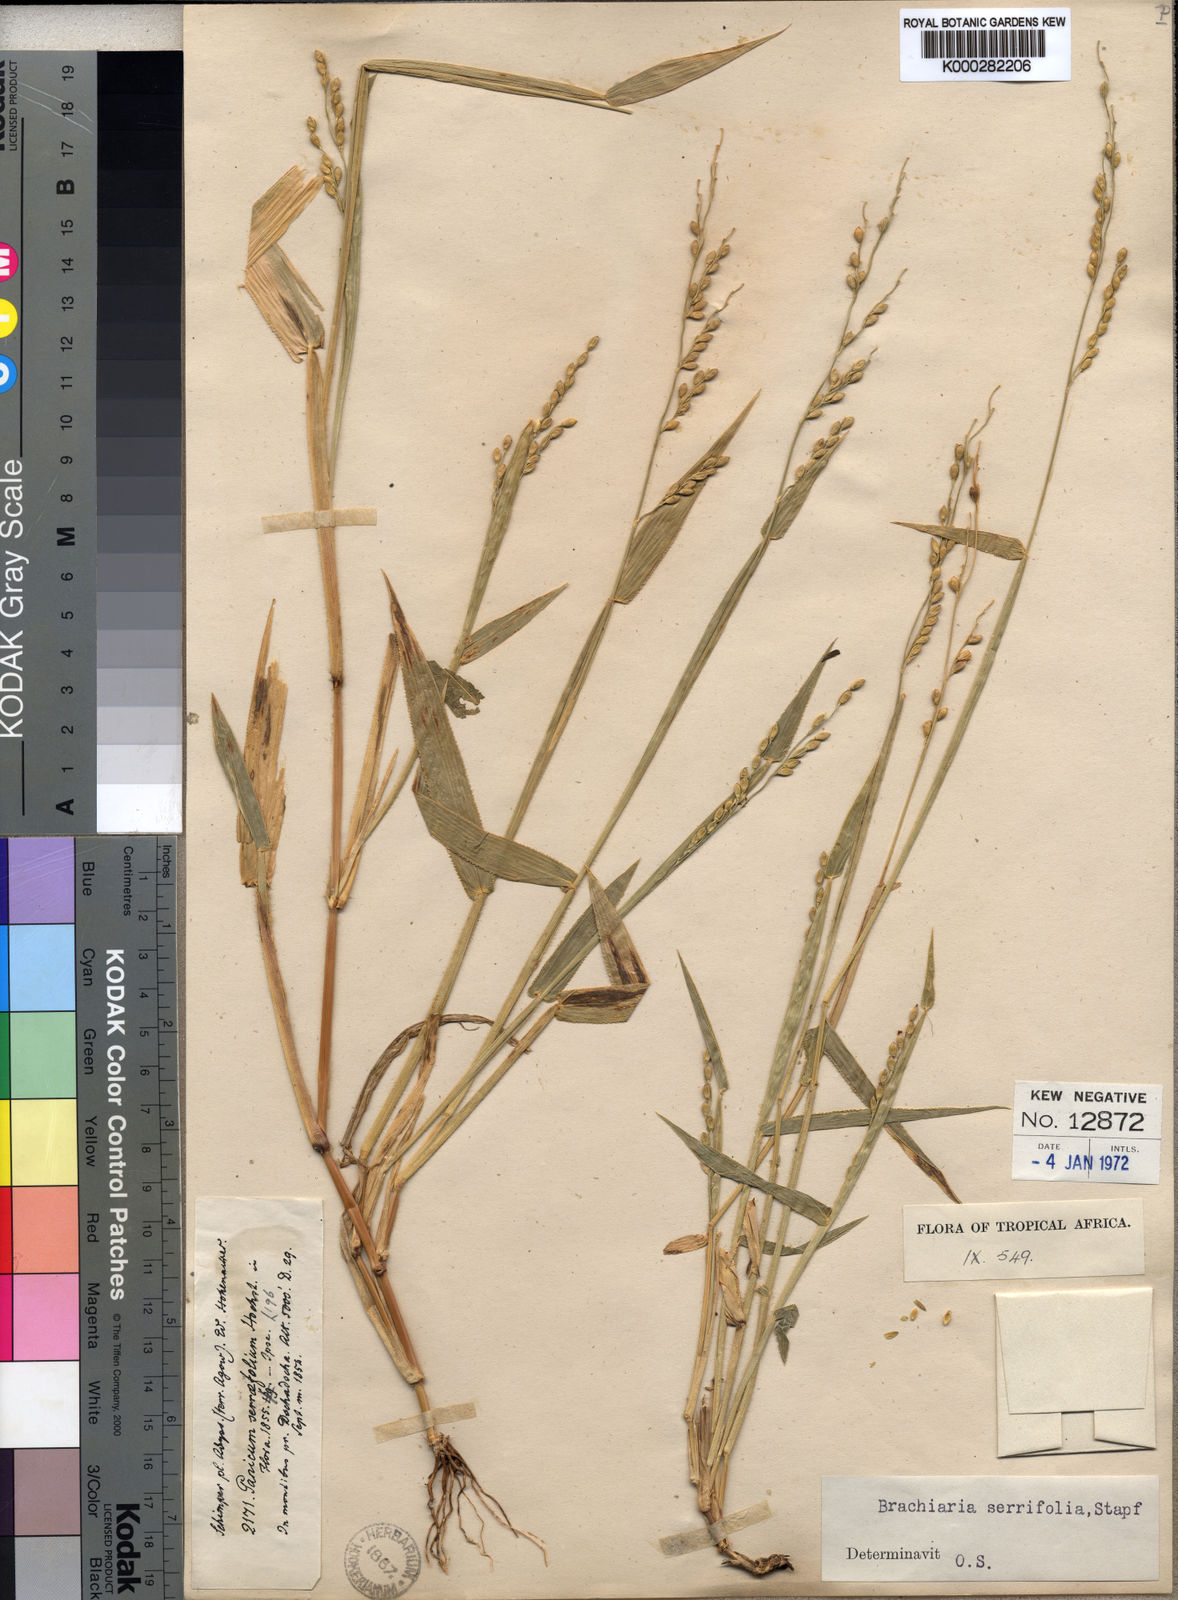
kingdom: Plantae
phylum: Tracheophyta
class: Liliopsida
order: Poales
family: Poaceae
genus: Urochloa
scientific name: Urochloa serrifolia
